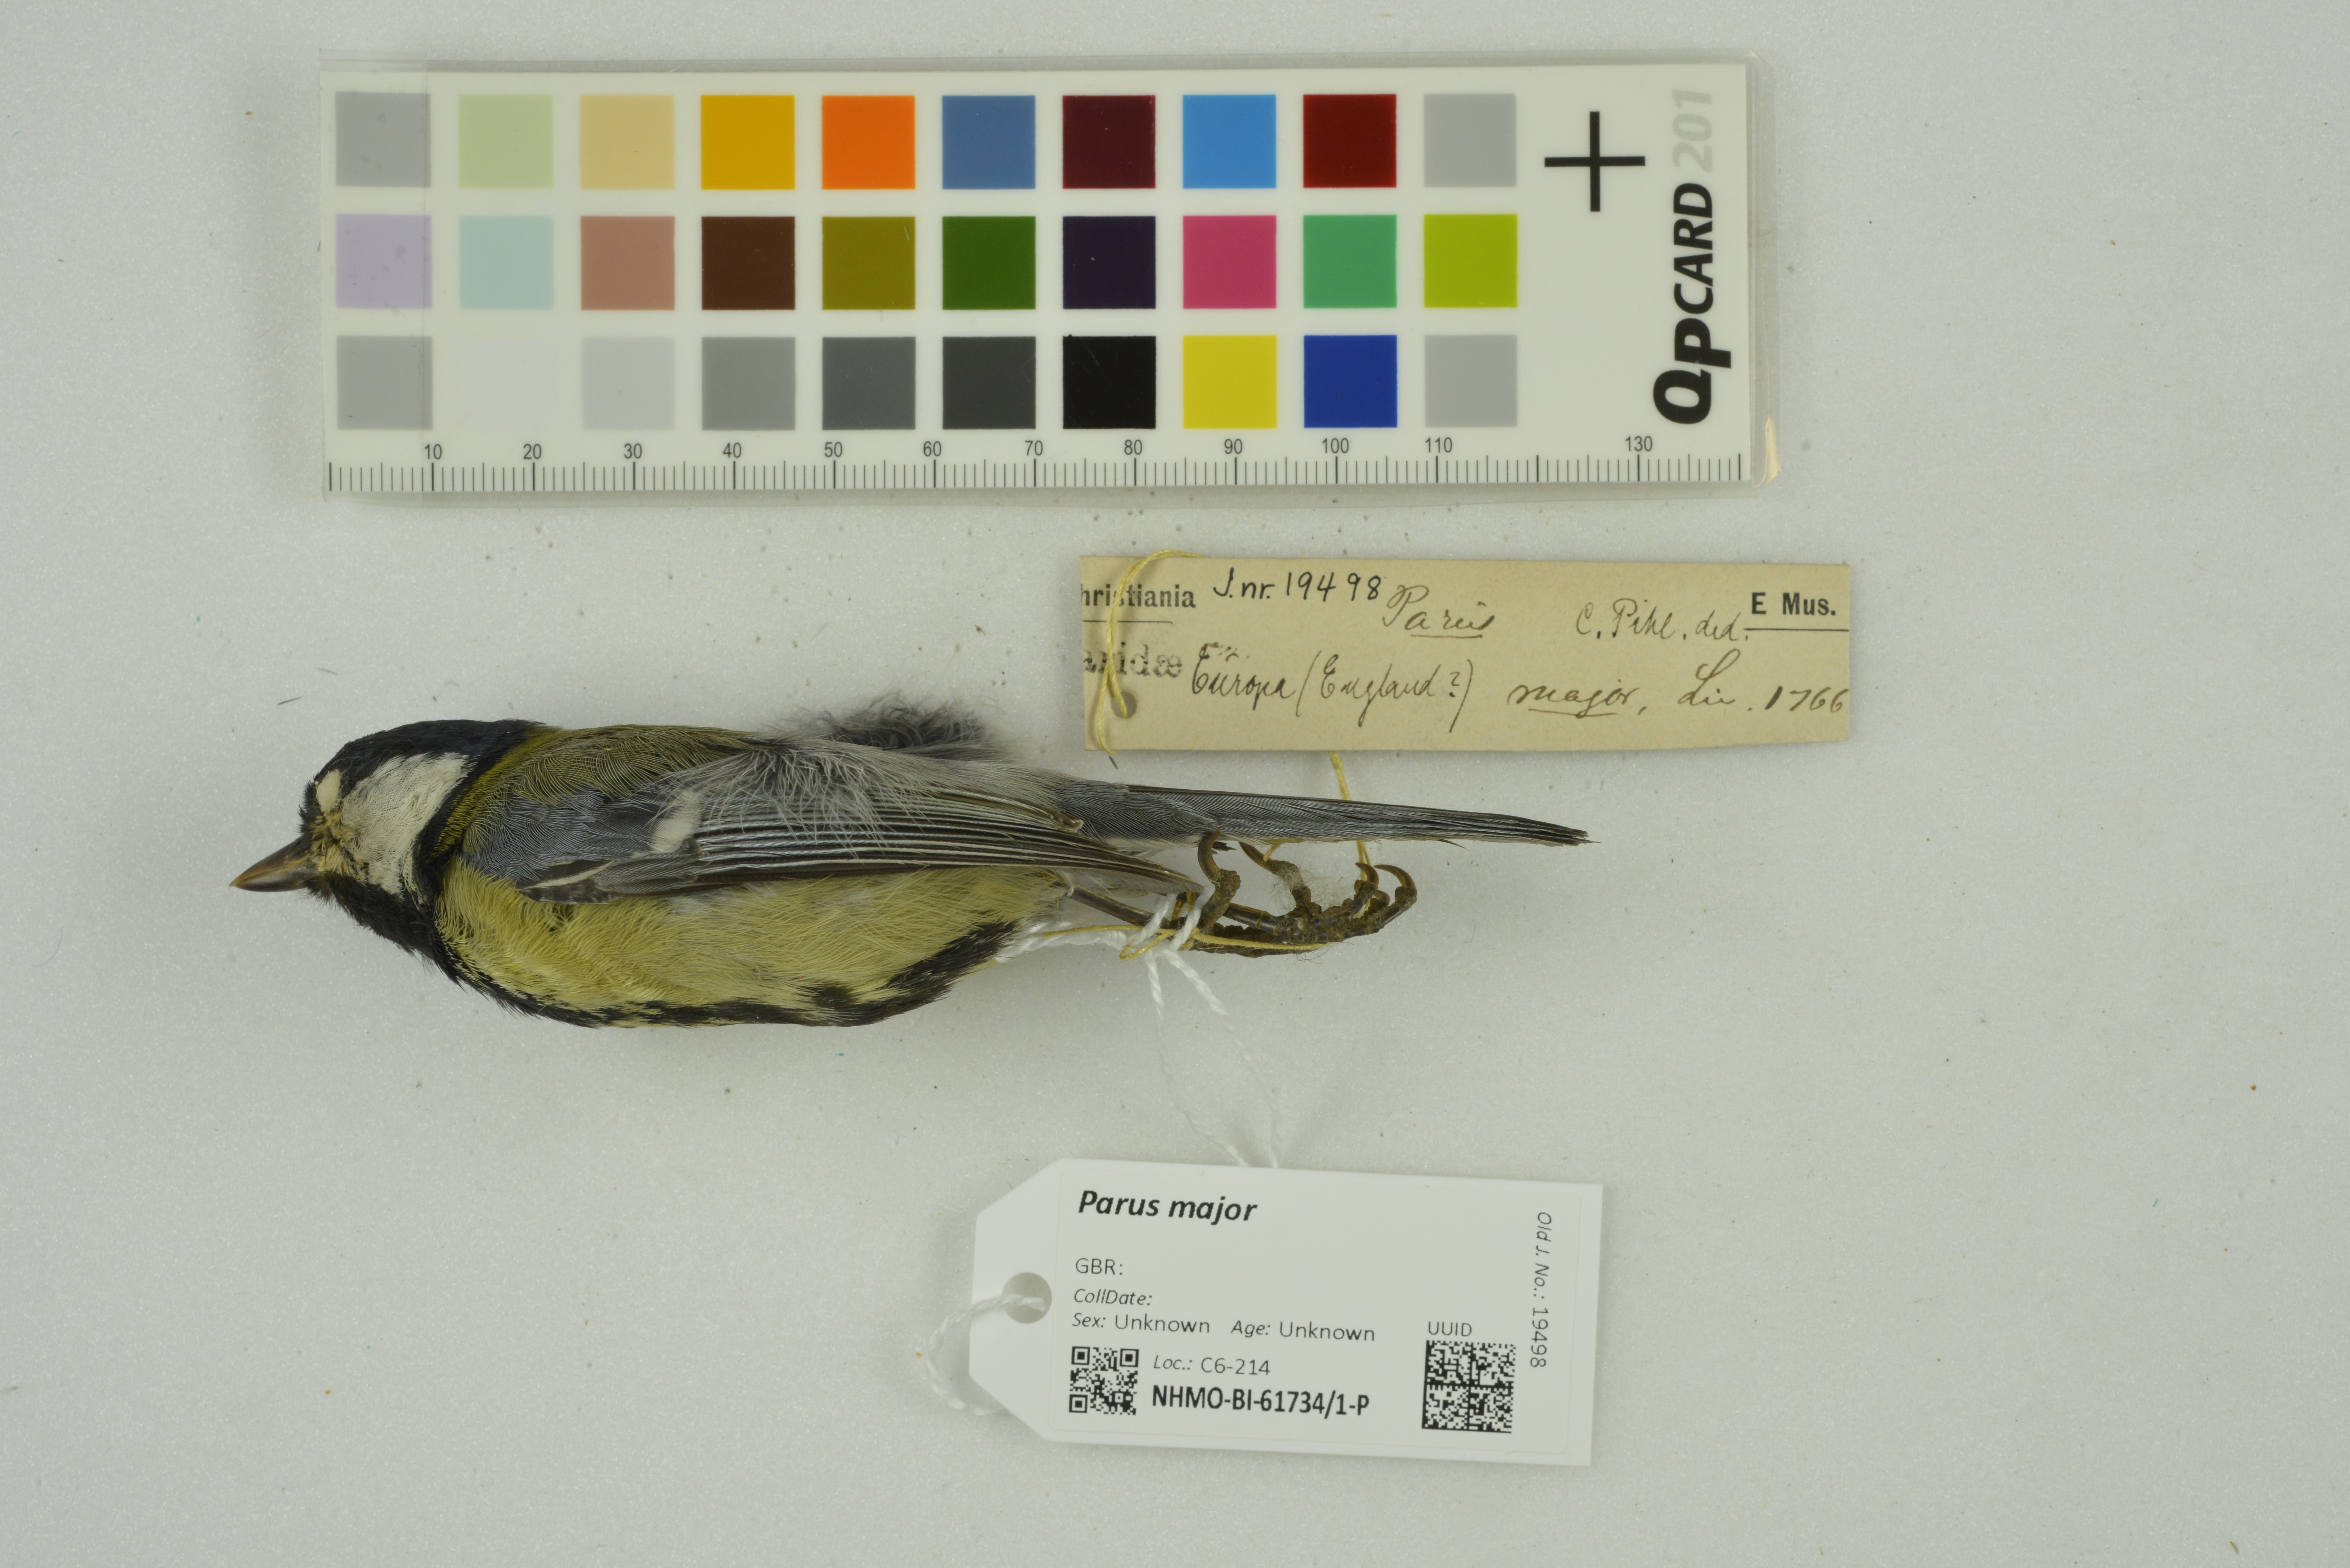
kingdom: Animalia
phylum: Chordata
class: Aves
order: Passeriformes
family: Paridae
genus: Parus
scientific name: Parus major
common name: Great tit
